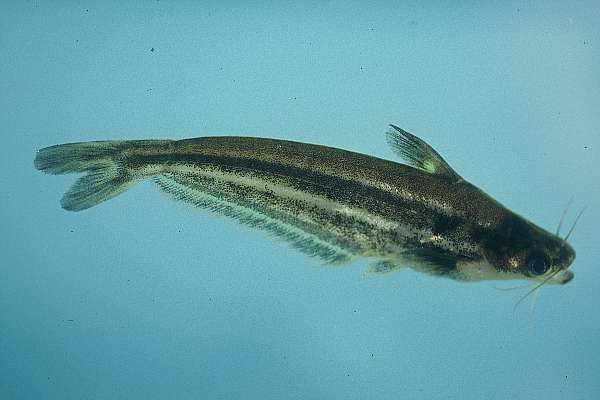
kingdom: Animalia
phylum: Chordata
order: Siluriformes
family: Schilbeidae
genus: Schilbe
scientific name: Schilbe intermedius
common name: Silver catfish
